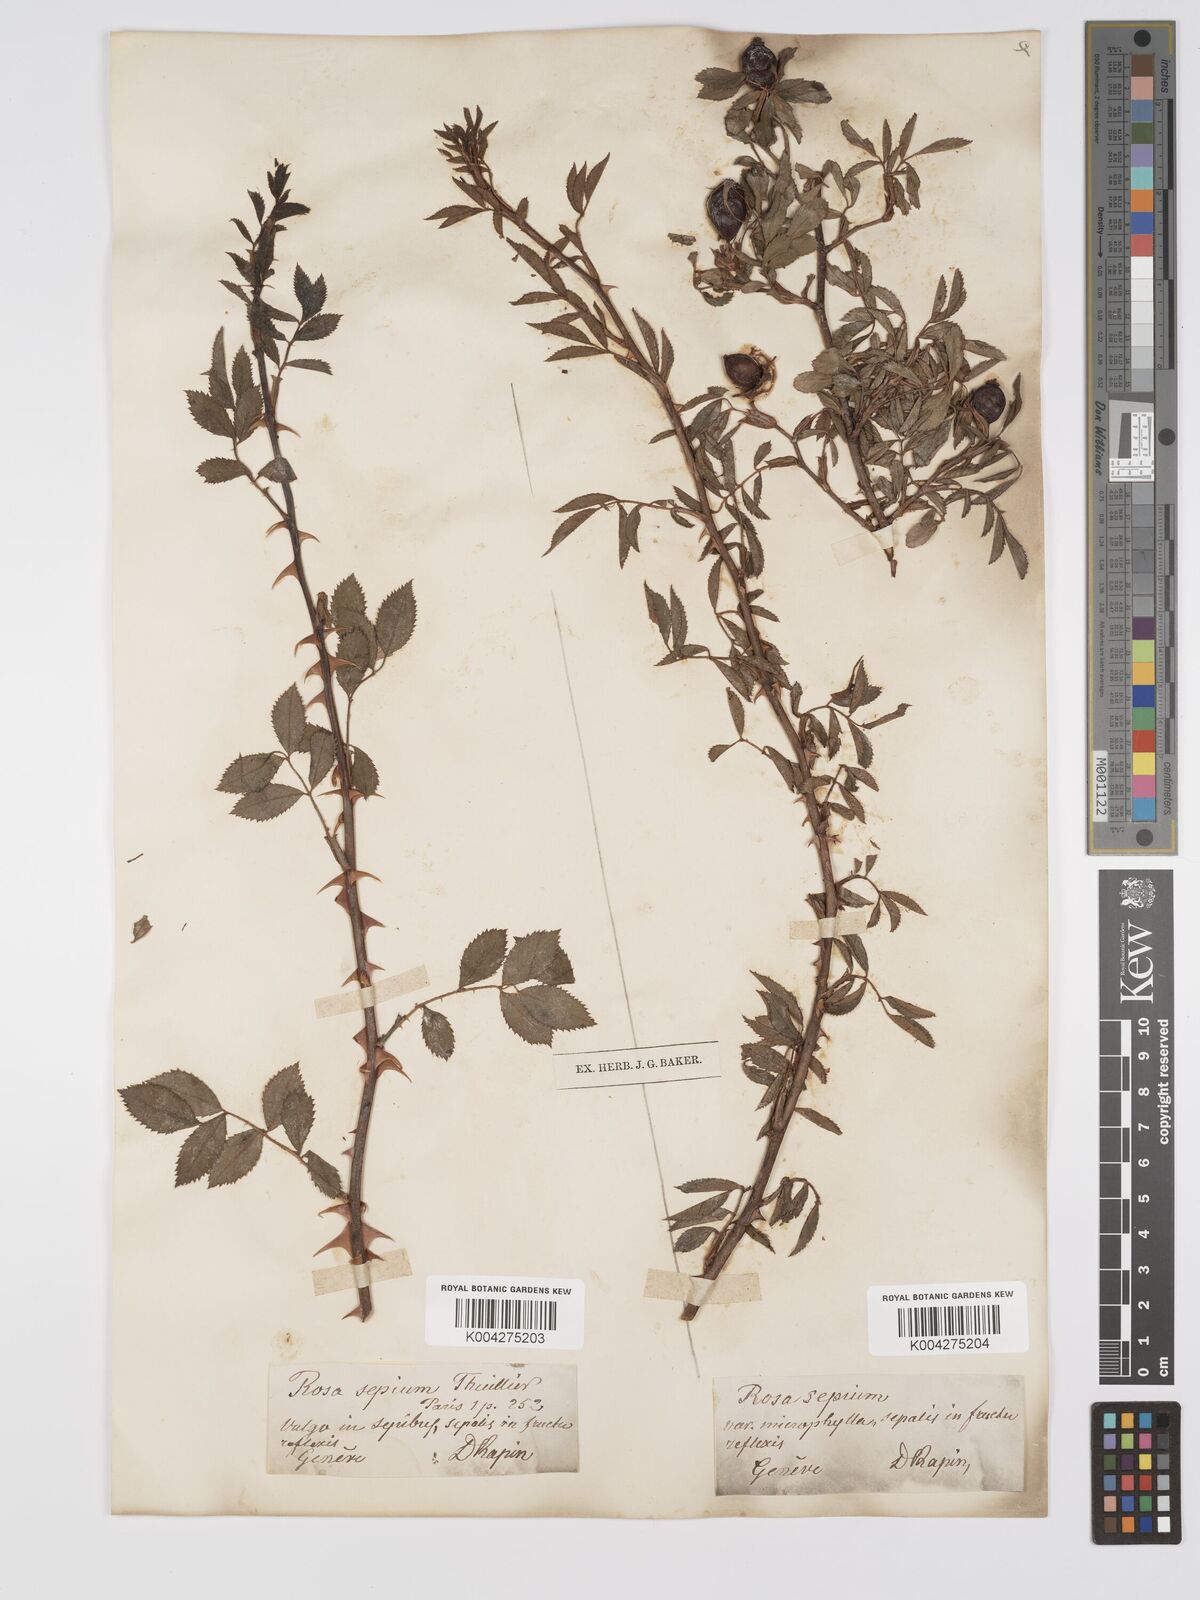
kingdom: Plantae
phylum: Tracheophyta
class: Magnoliopsida
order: Rosales
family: Rosaceae
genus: Rosa
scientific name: Rosa
